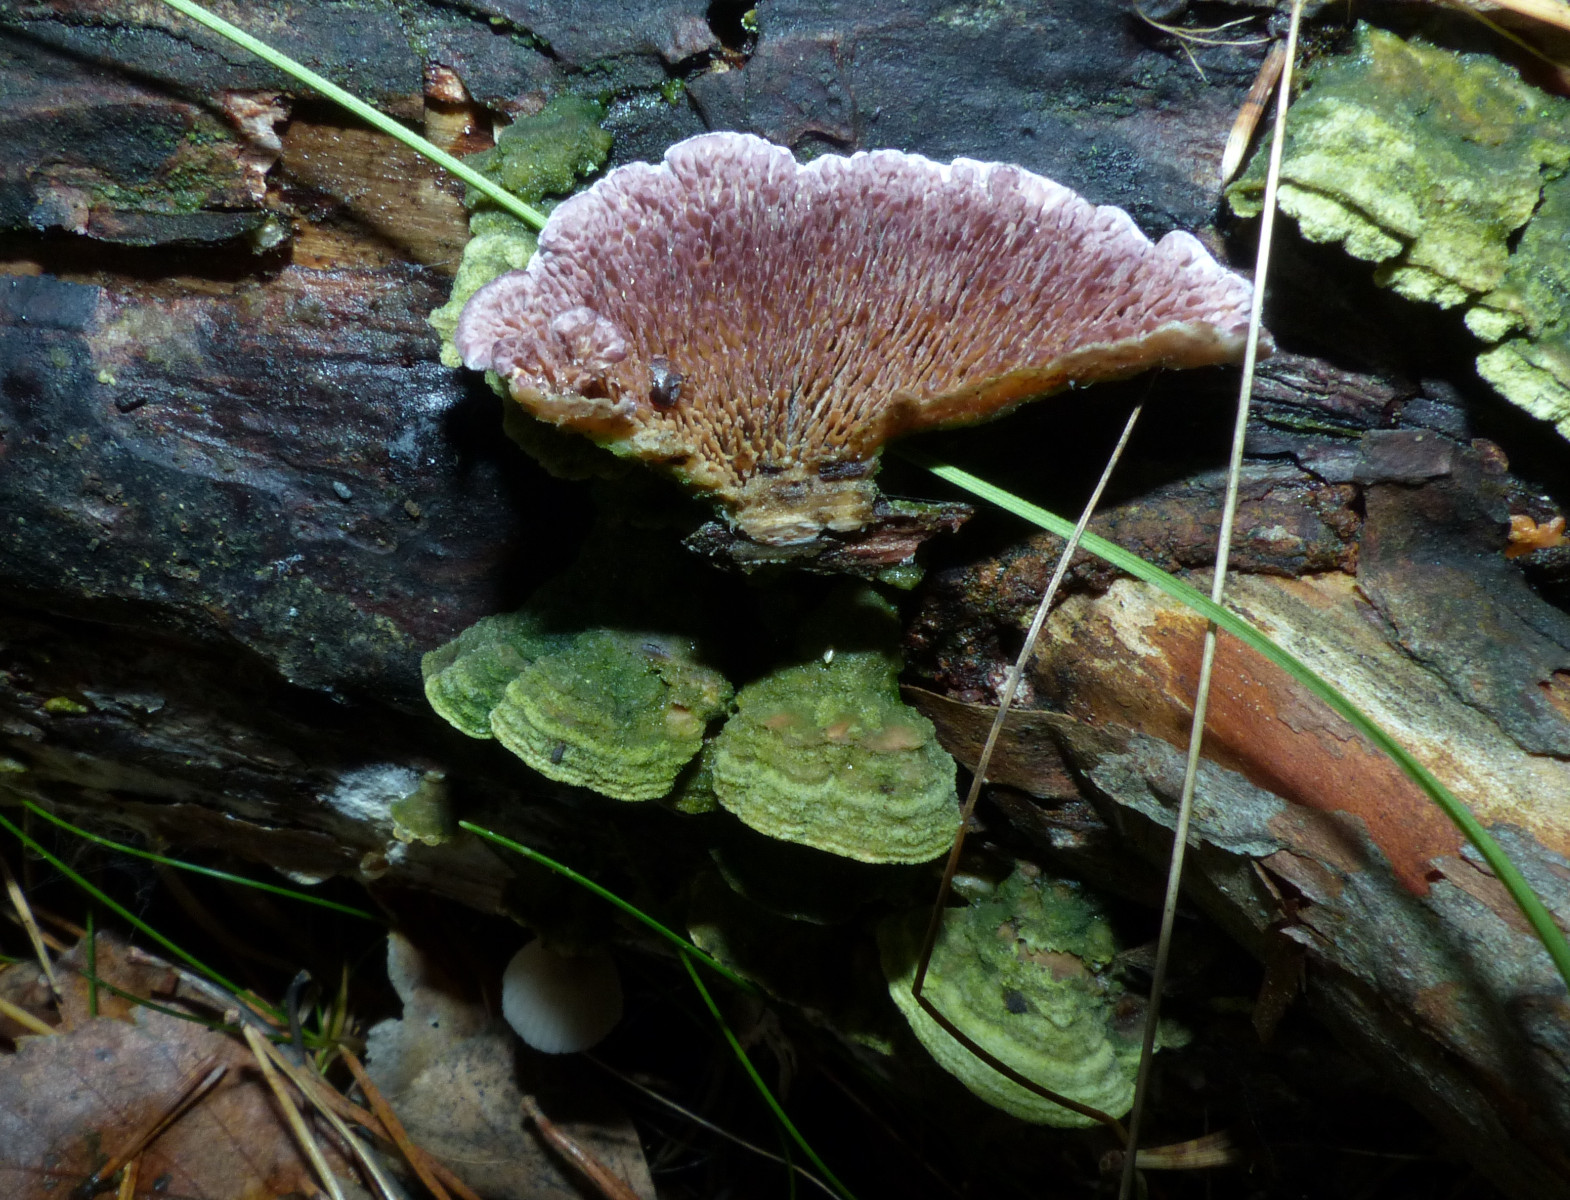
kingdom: Fungi
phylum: Basidiomycota
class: Agaricomycetes
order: Hymenochaetales
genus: Trichaptum
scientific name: Trichaptum fuscoviolaceum
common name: tandet violporesvamp
